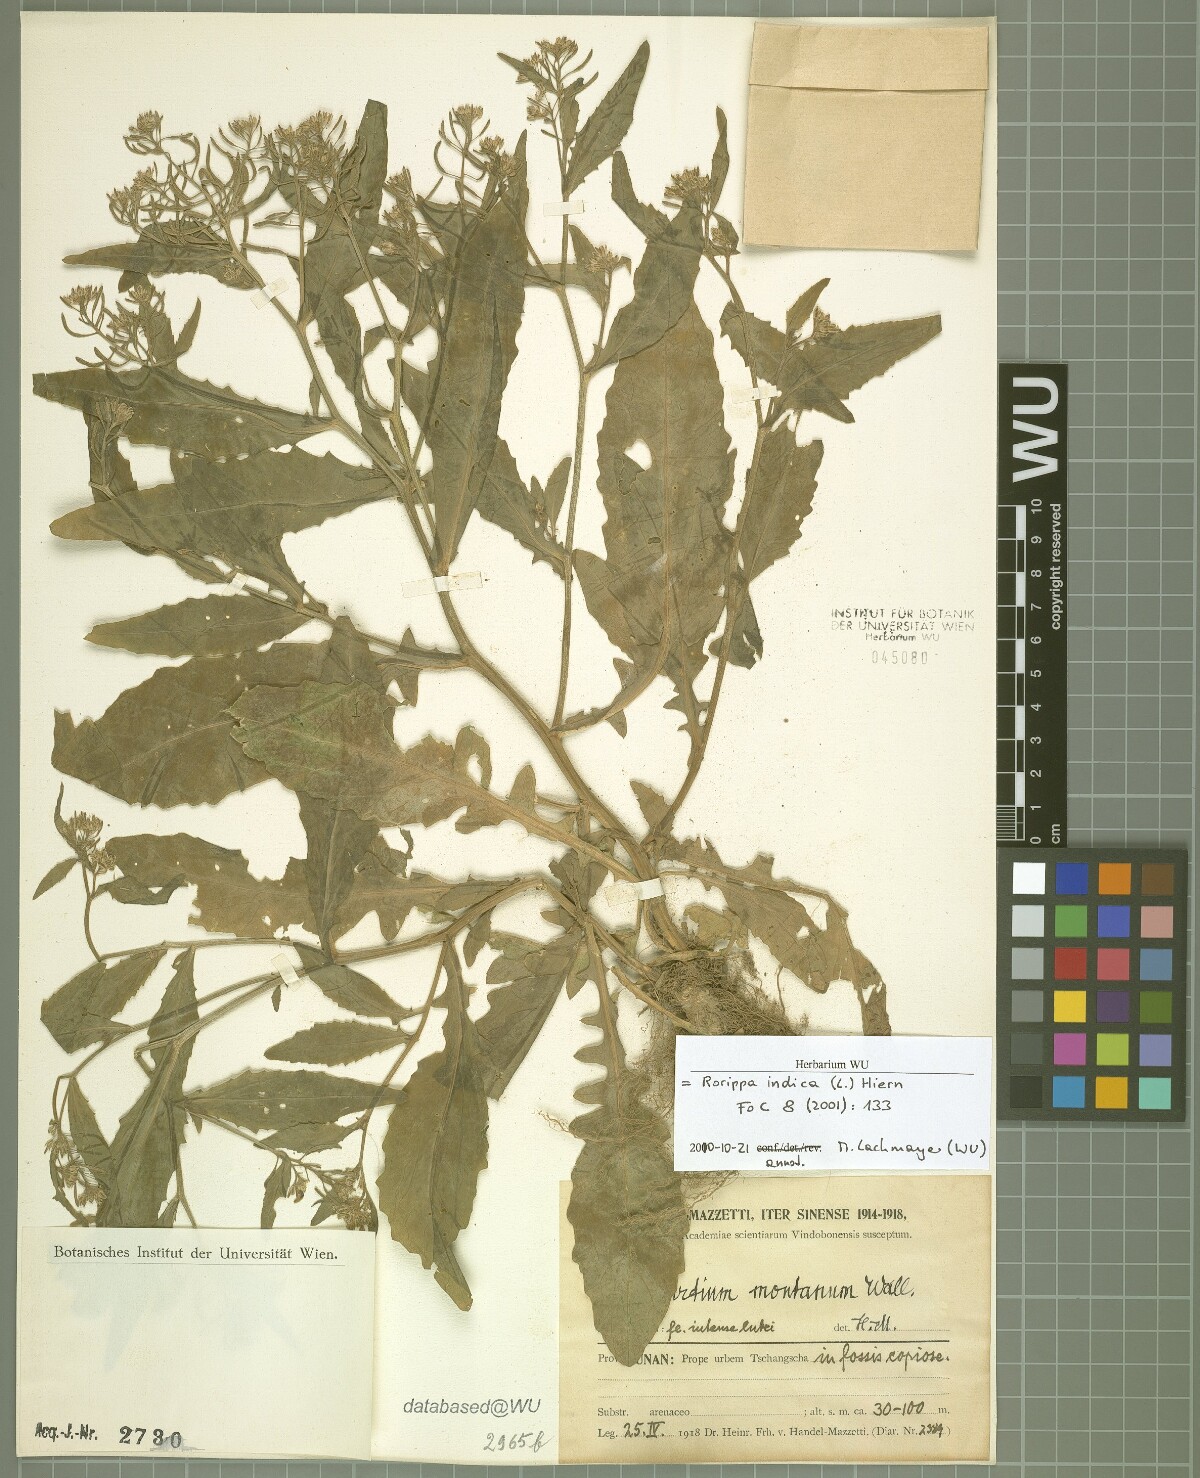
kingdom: Plantae
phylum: Tracheophyta
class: Magnoliopsida
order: Brassicales
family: Brassicaceae
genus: Rorippa
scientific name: Rorippa indica
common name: Variableleaf yellowcress
